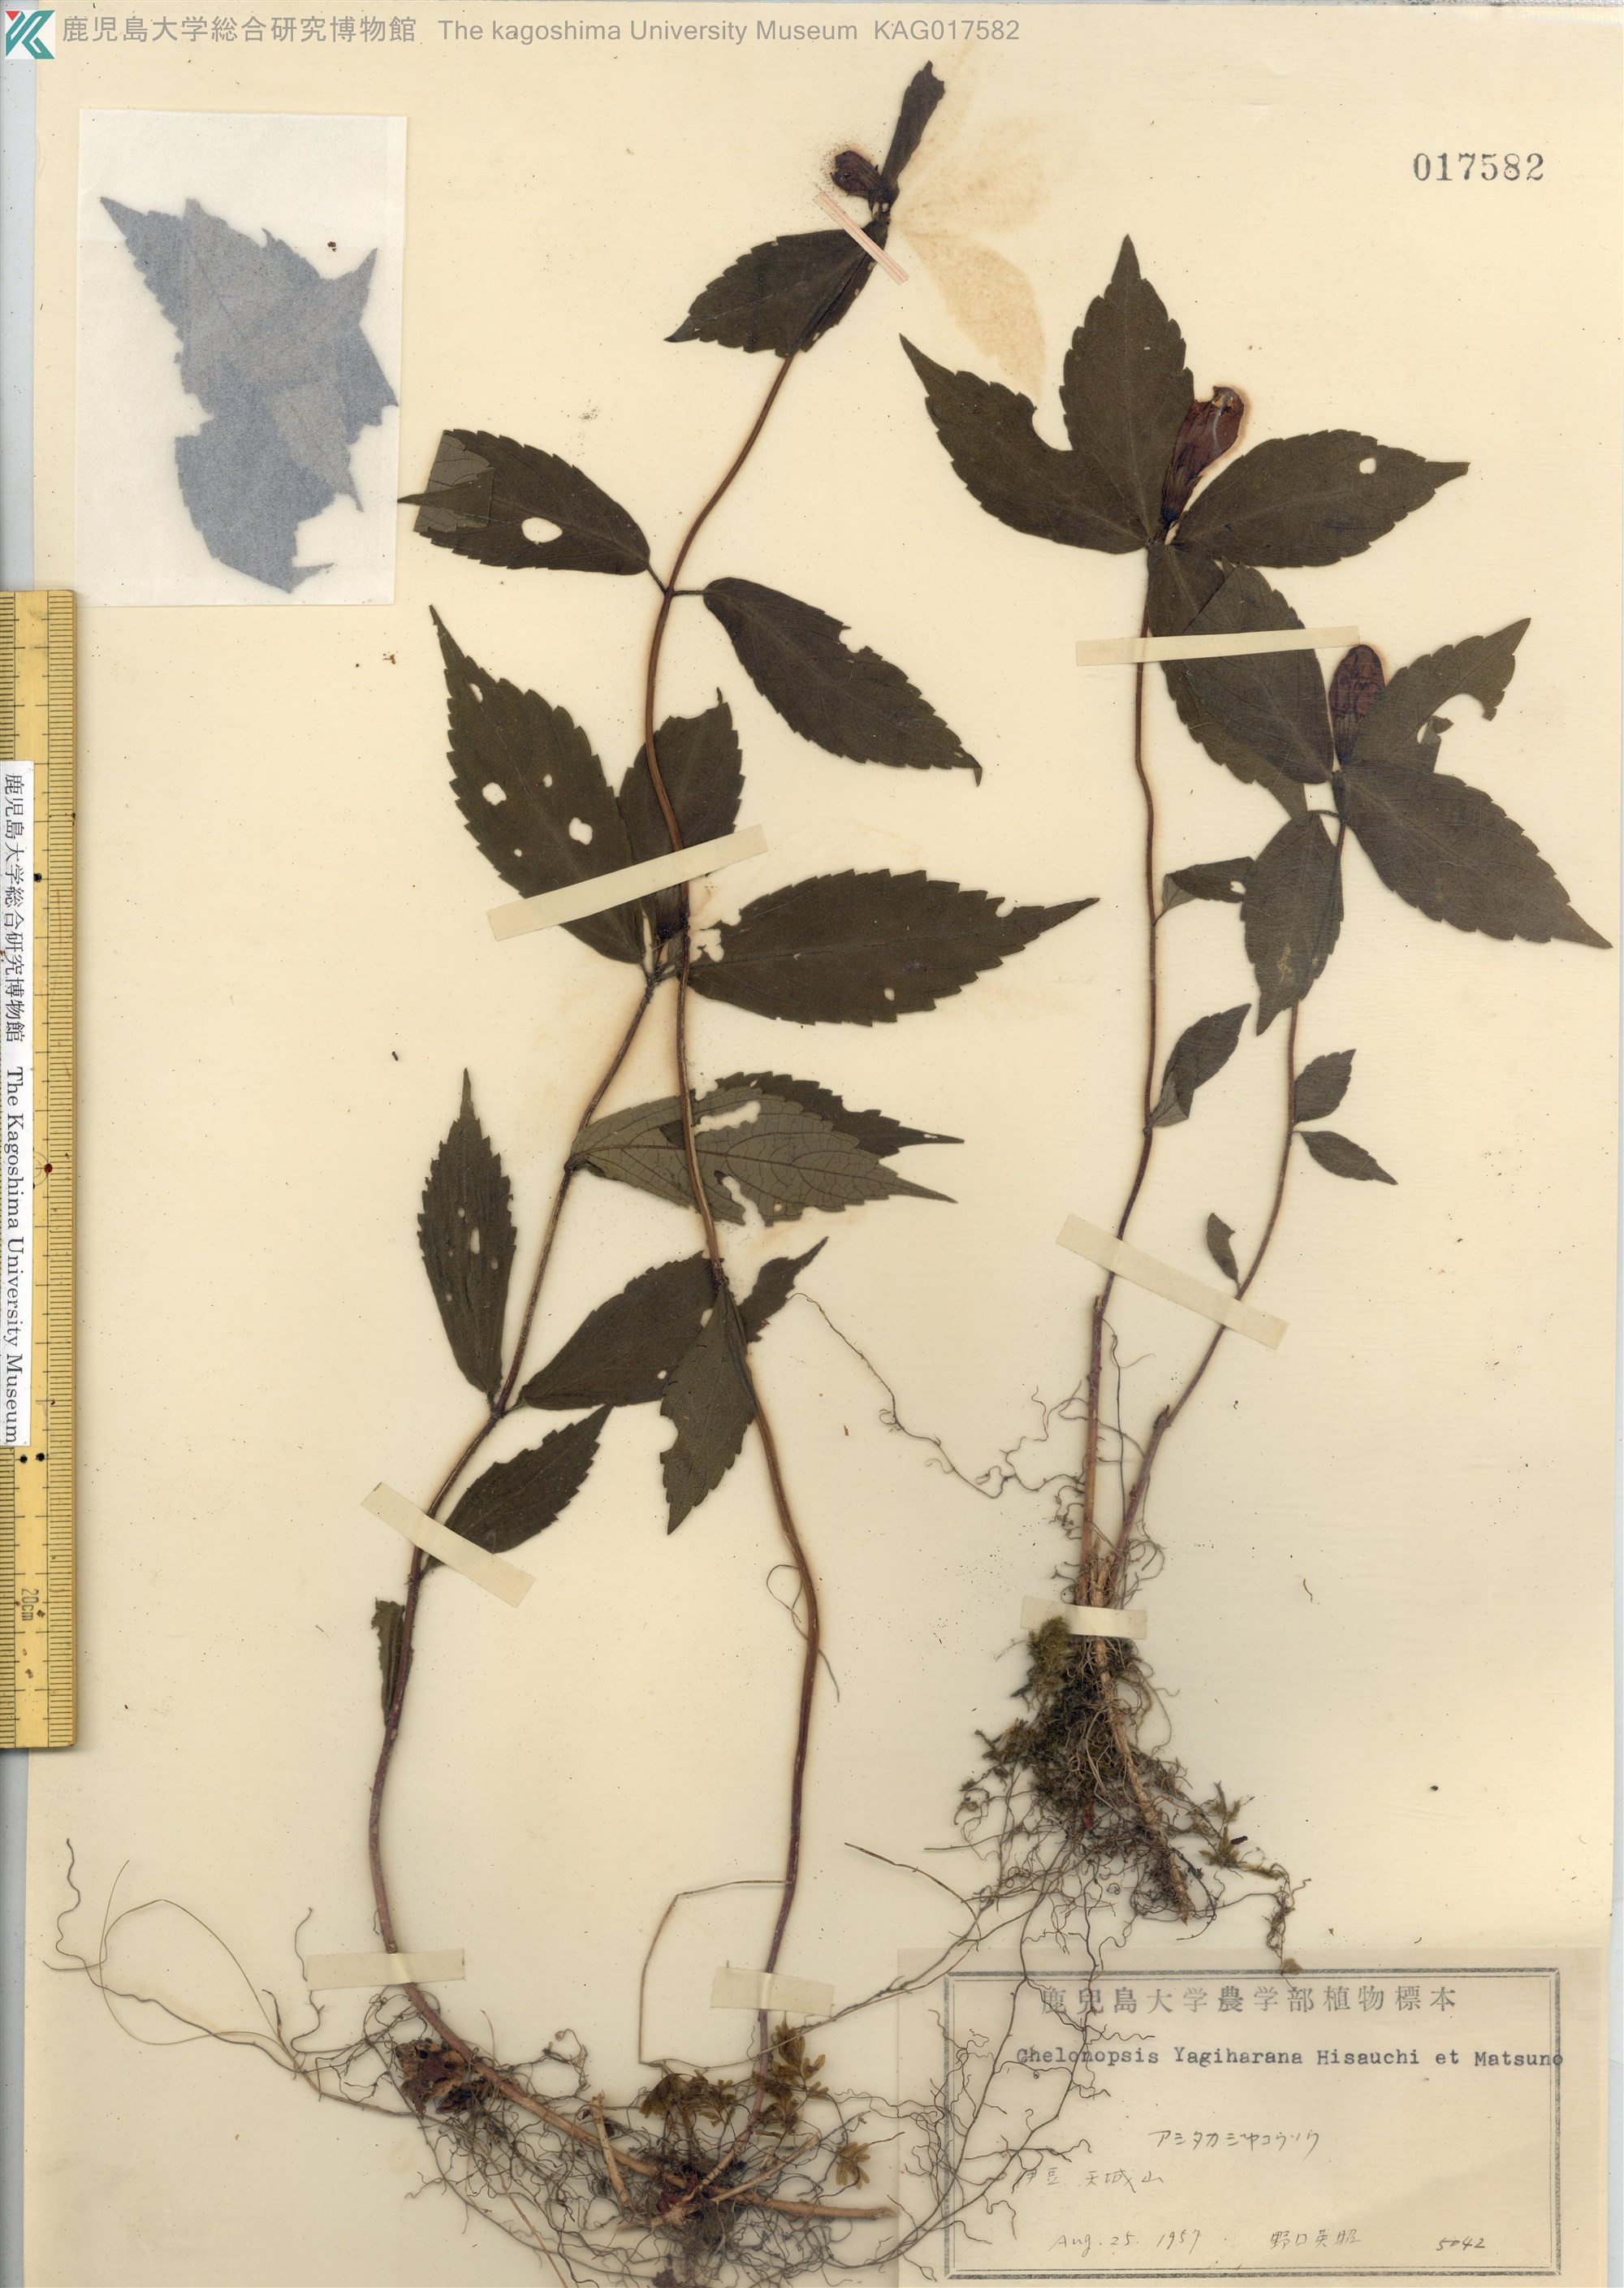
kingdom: Plantae
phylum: Tracheophyta
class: Magnoliopsida
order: Lamiales
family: Lamiaceae
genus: Chelonopsis
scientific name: Chelonopsis yagiharana
